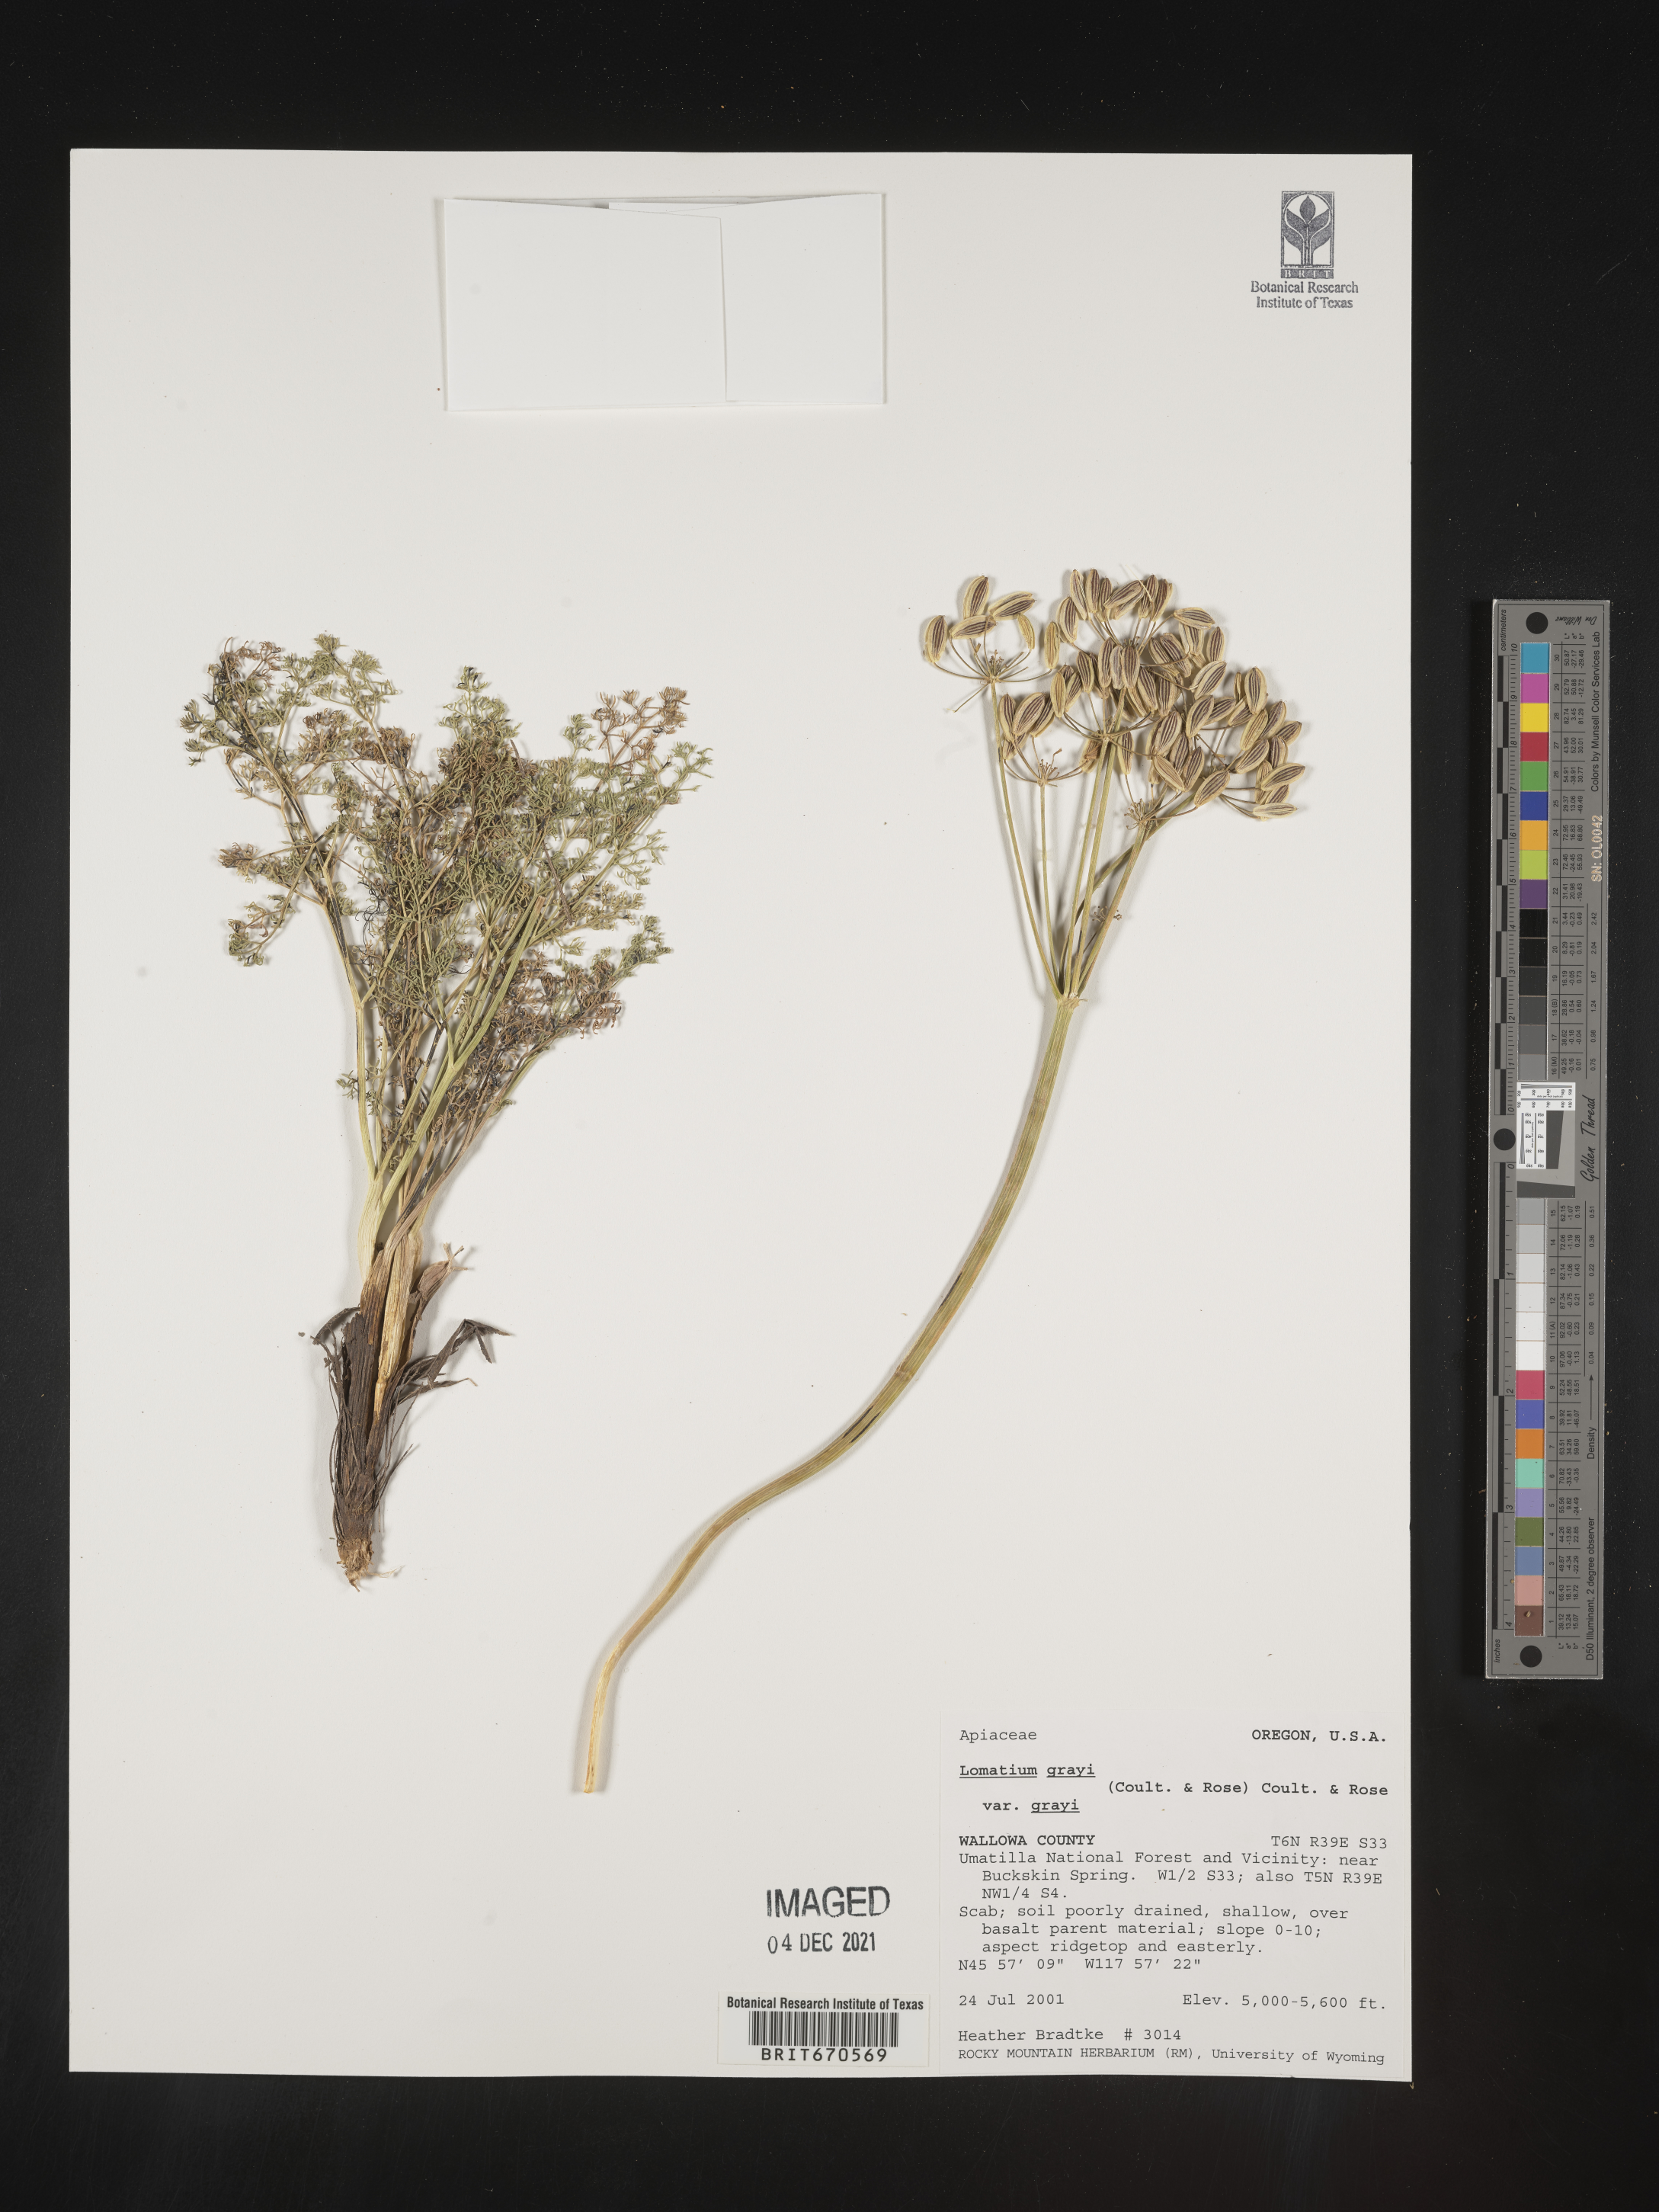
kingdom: Plantae
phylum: Tracheophyta
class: Magnoliopsida
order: Apiales
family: Apiaceae
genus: Lomatium
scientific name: Lomatium grayi
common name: Milfoil lomatium
